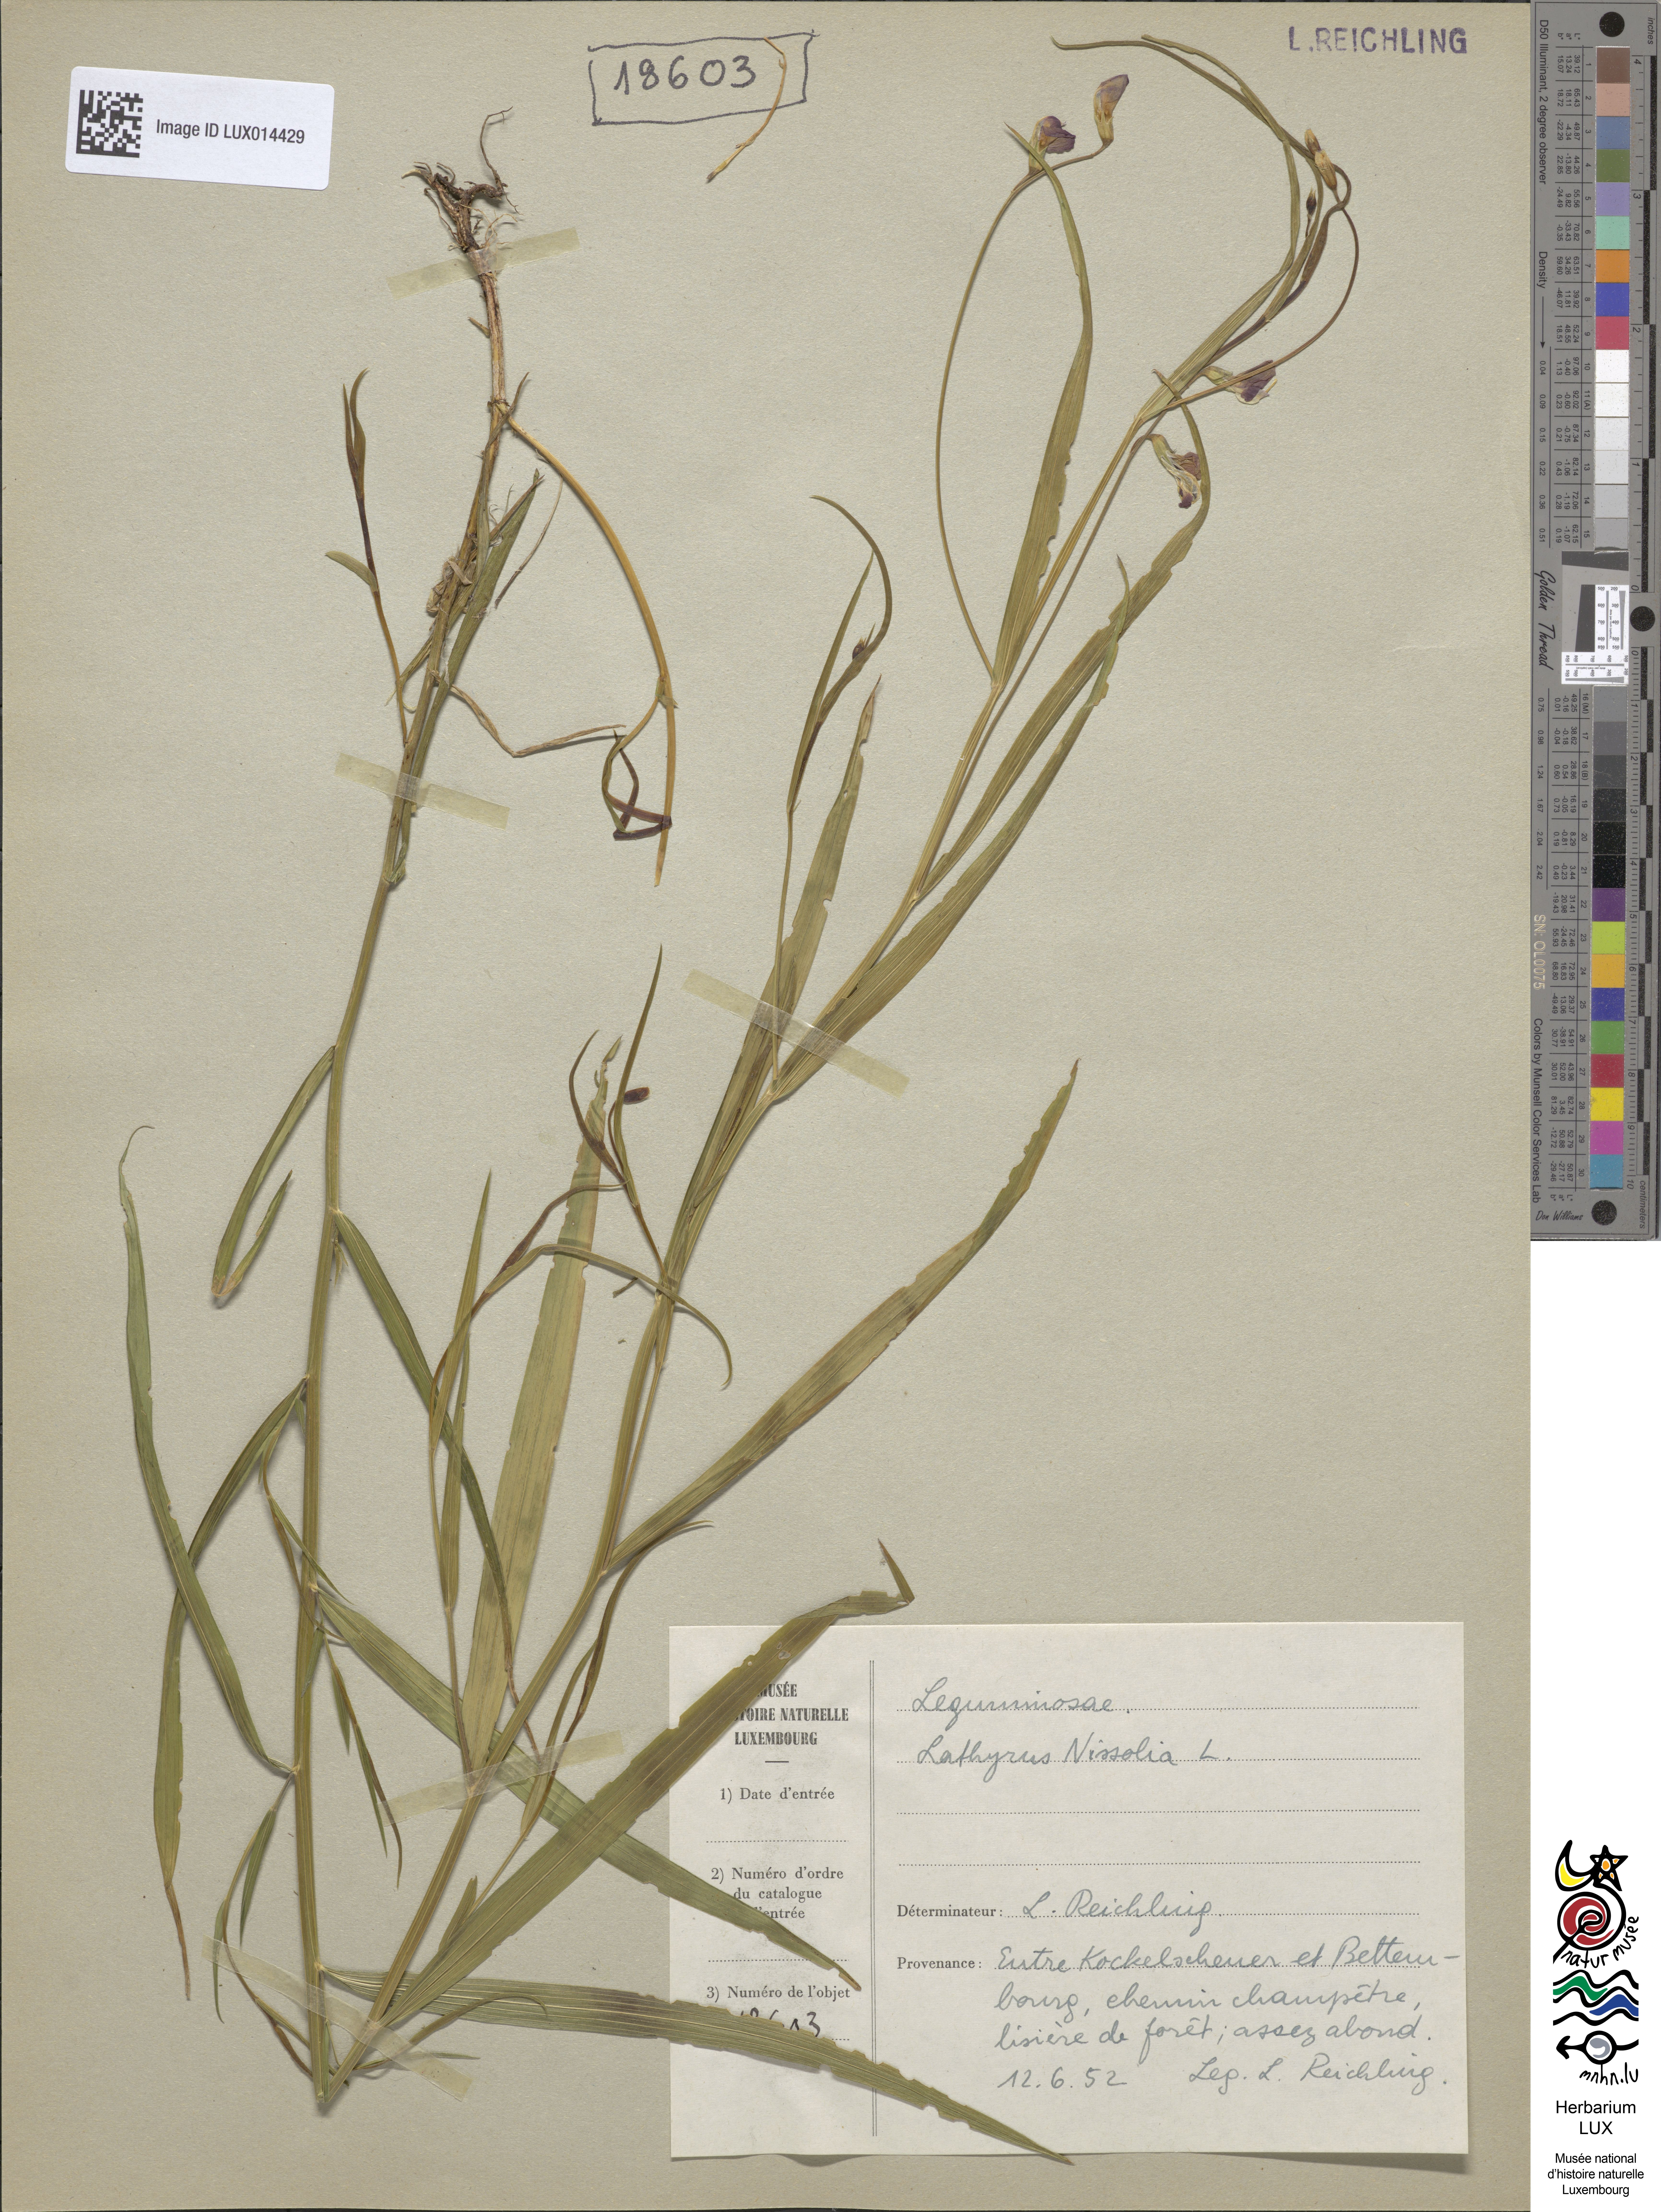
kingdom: Plantae
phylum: Tracheophyta
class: Magnoliopsida
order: Fabales
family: Fabaceae
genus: Lathyrus
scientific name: Lathyrus nissolia
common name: Grass vetchling
